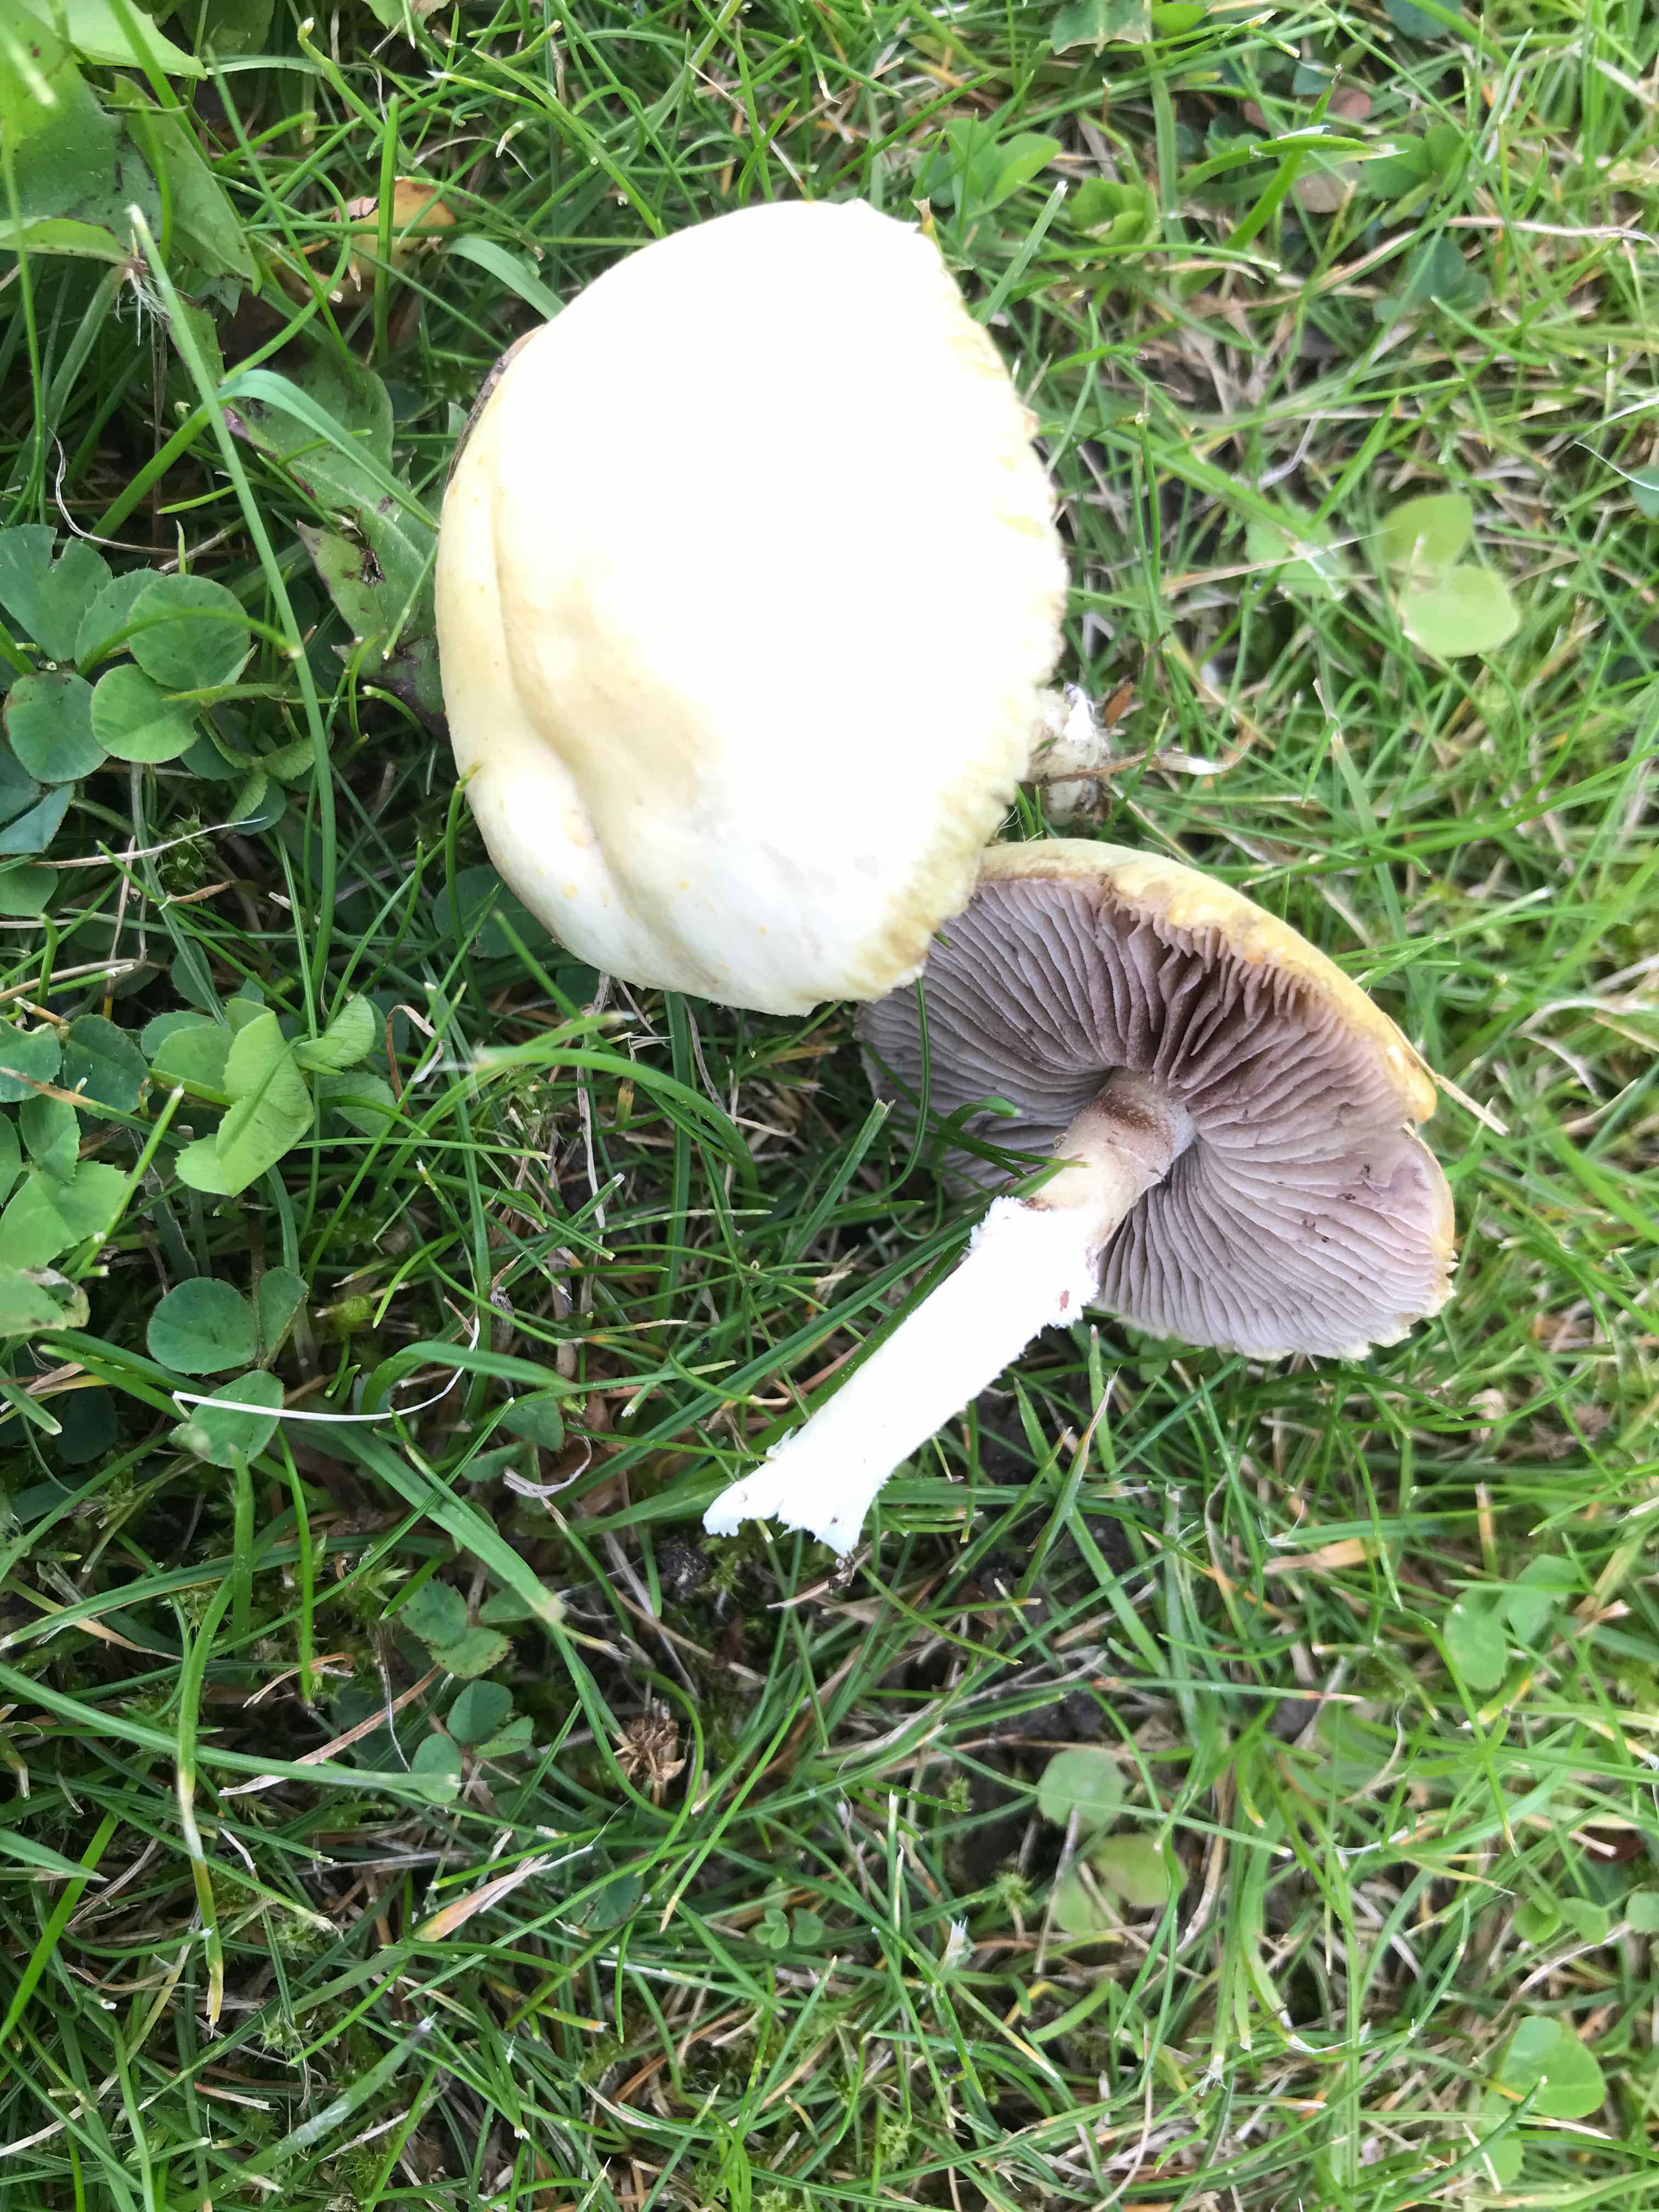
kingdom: Fungi
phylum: Basidiomycota
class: Agaricomycetes
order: Agaricales
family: Hymenogastraceae
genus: Psilocybe
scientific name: Psilocybe coronilla
